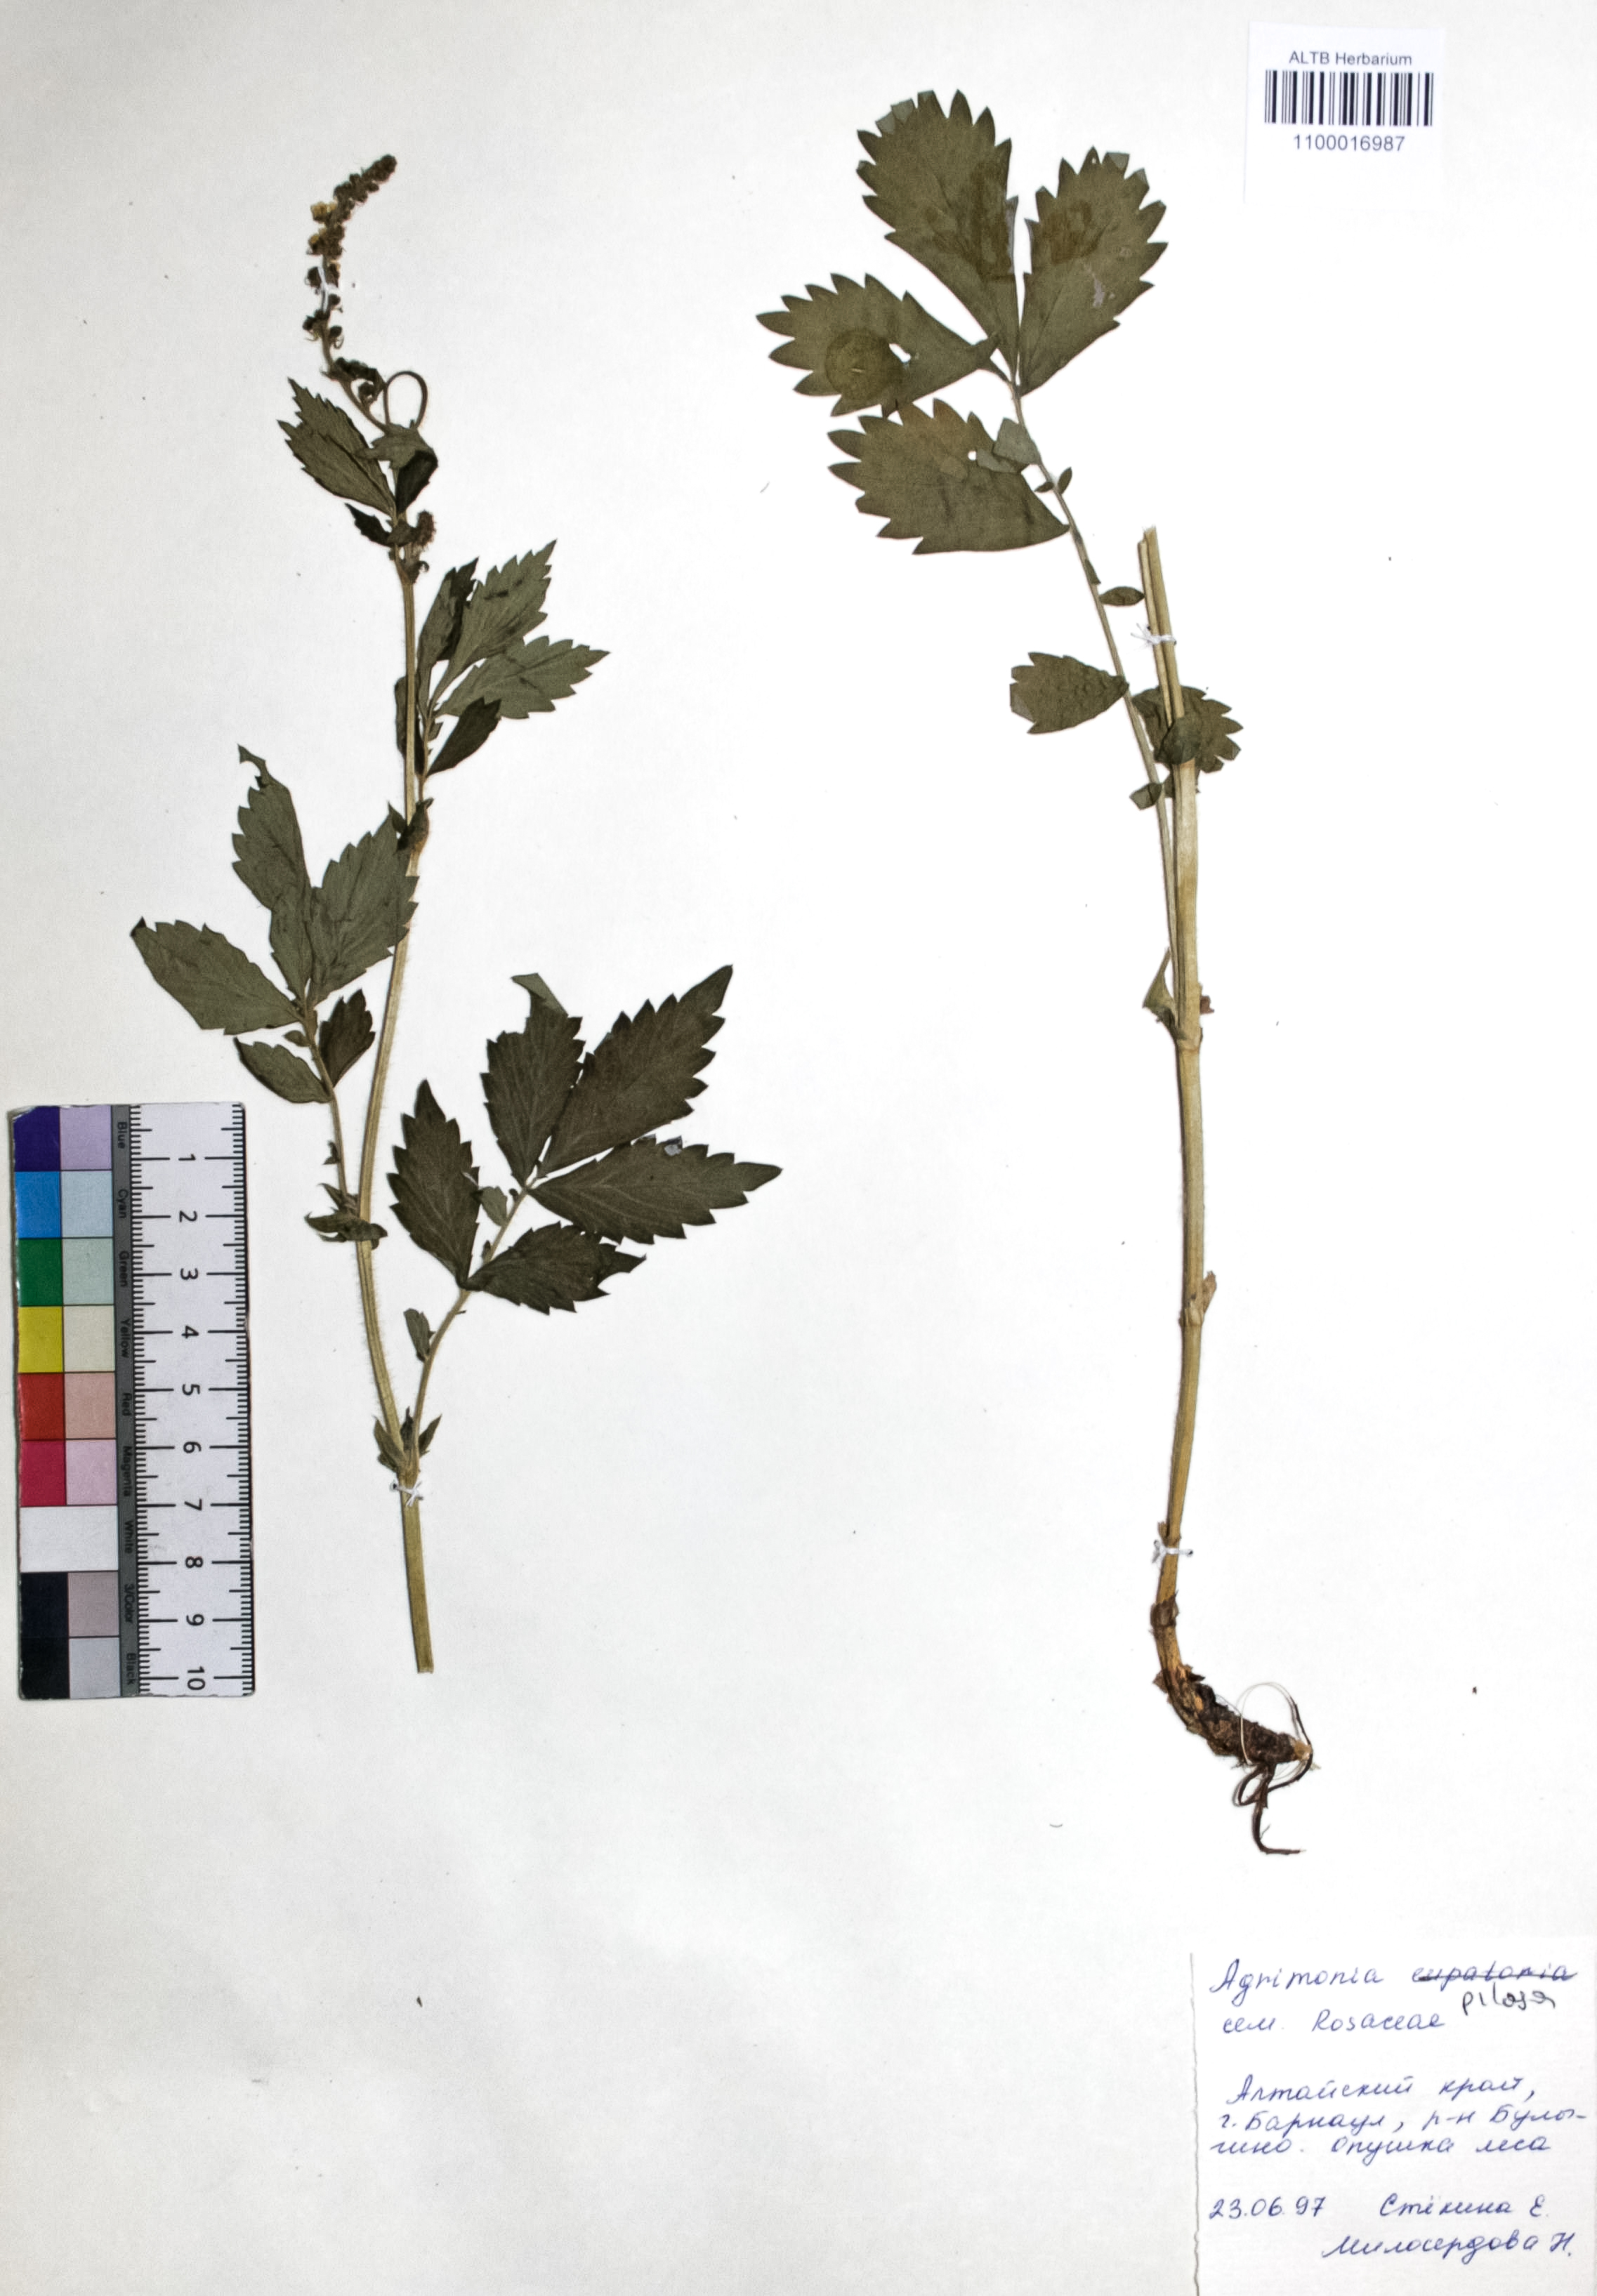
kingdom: Plantae
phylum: Tracheophyta
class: Magnoliopsida
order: Rosales
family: Rosaceae
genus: Agrimonia
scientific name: Agrimonia pilosa
